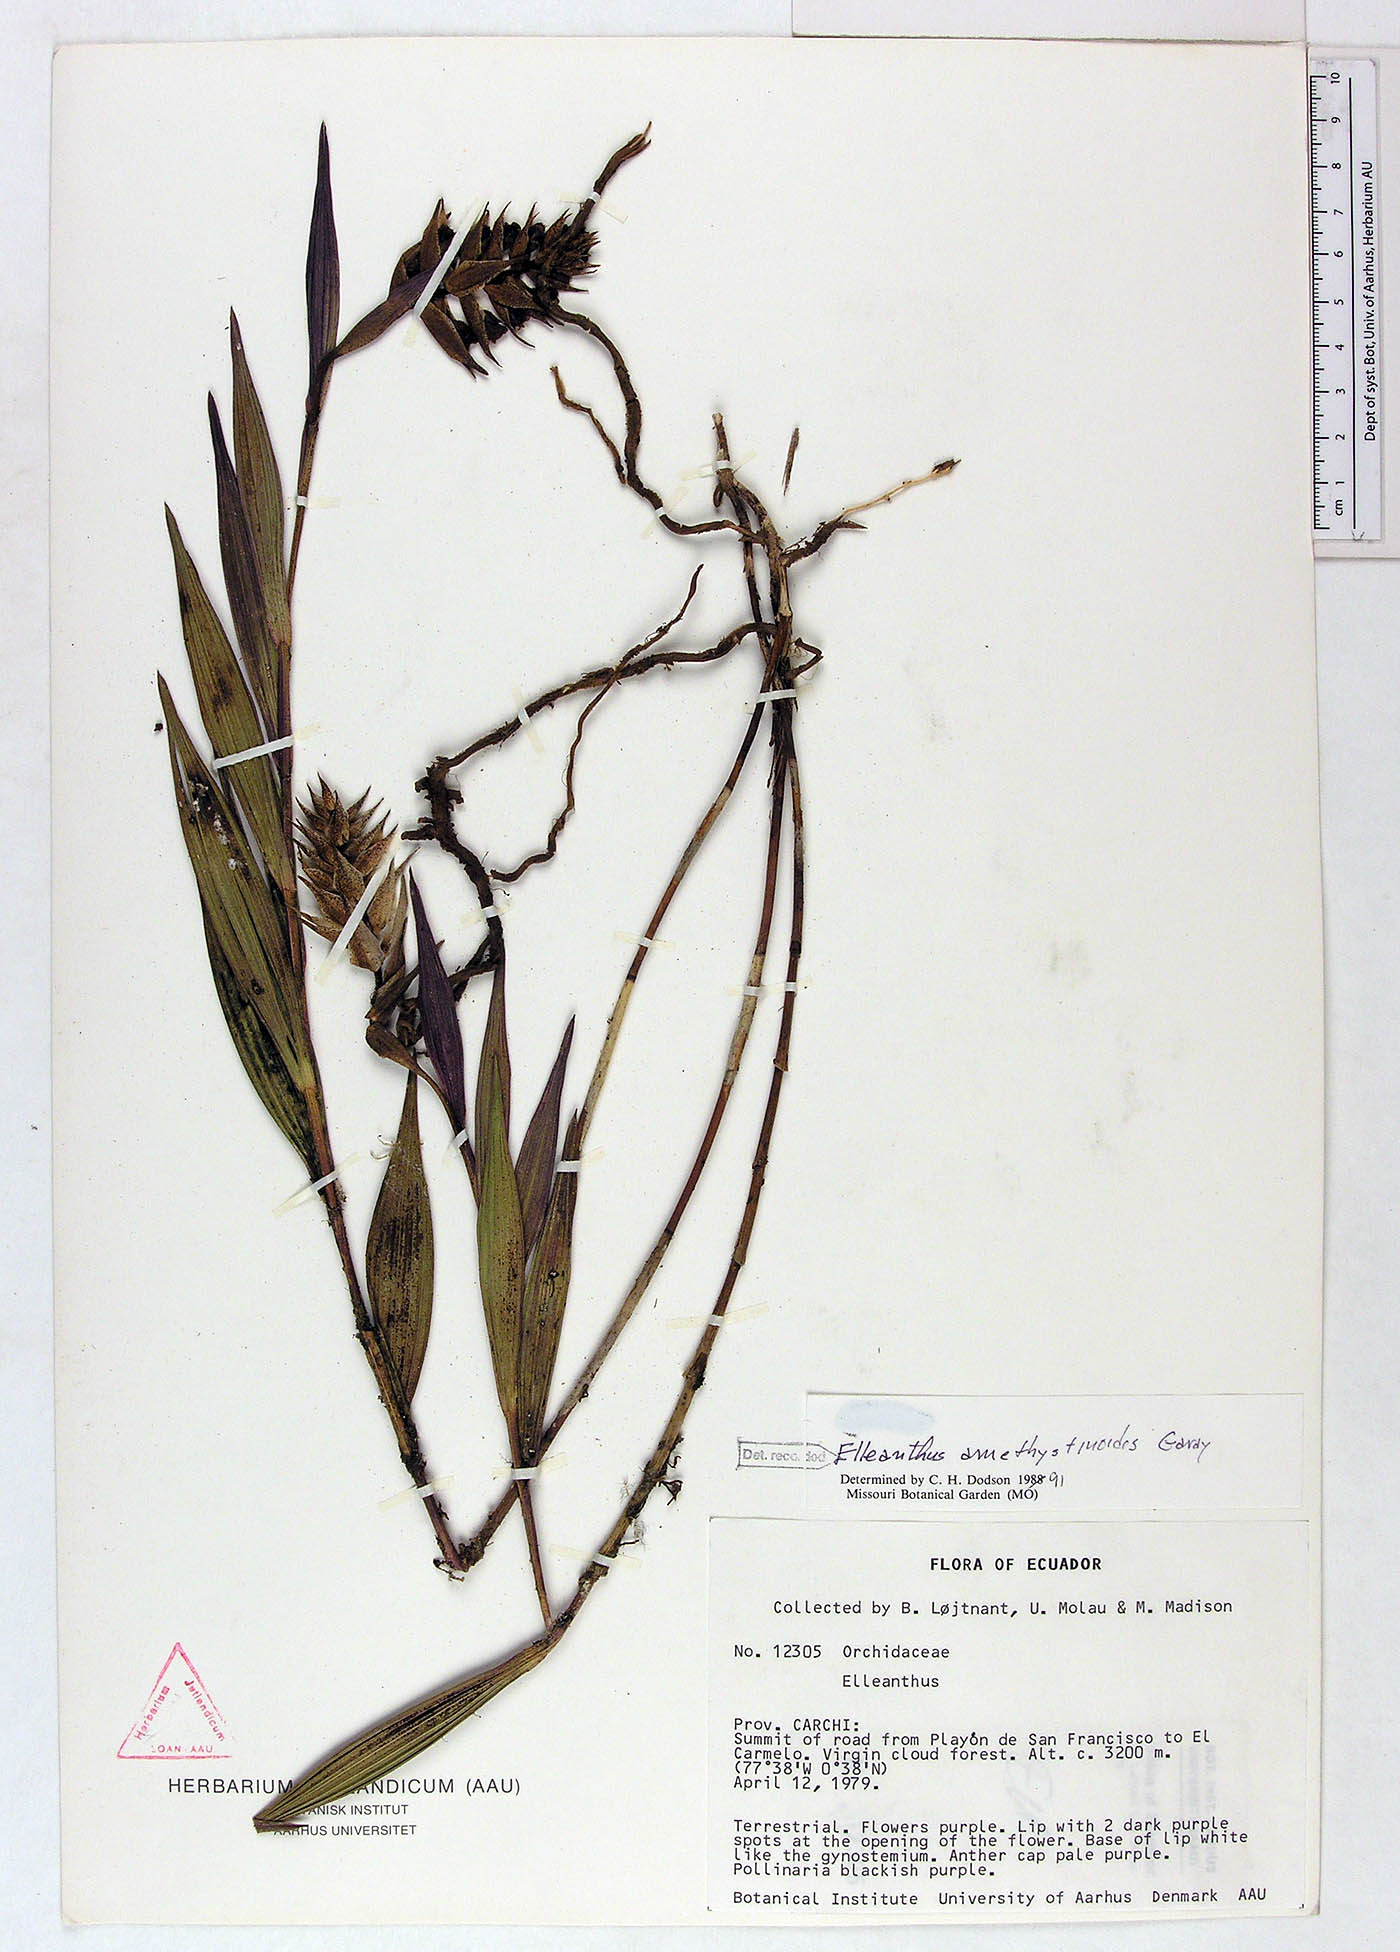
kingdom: Plantae
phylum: Tracheophyta
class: Liliopsida
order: Asparagales
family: Orchidaceae
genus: Elleanthus
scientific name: Elleanthus amethystinoides
